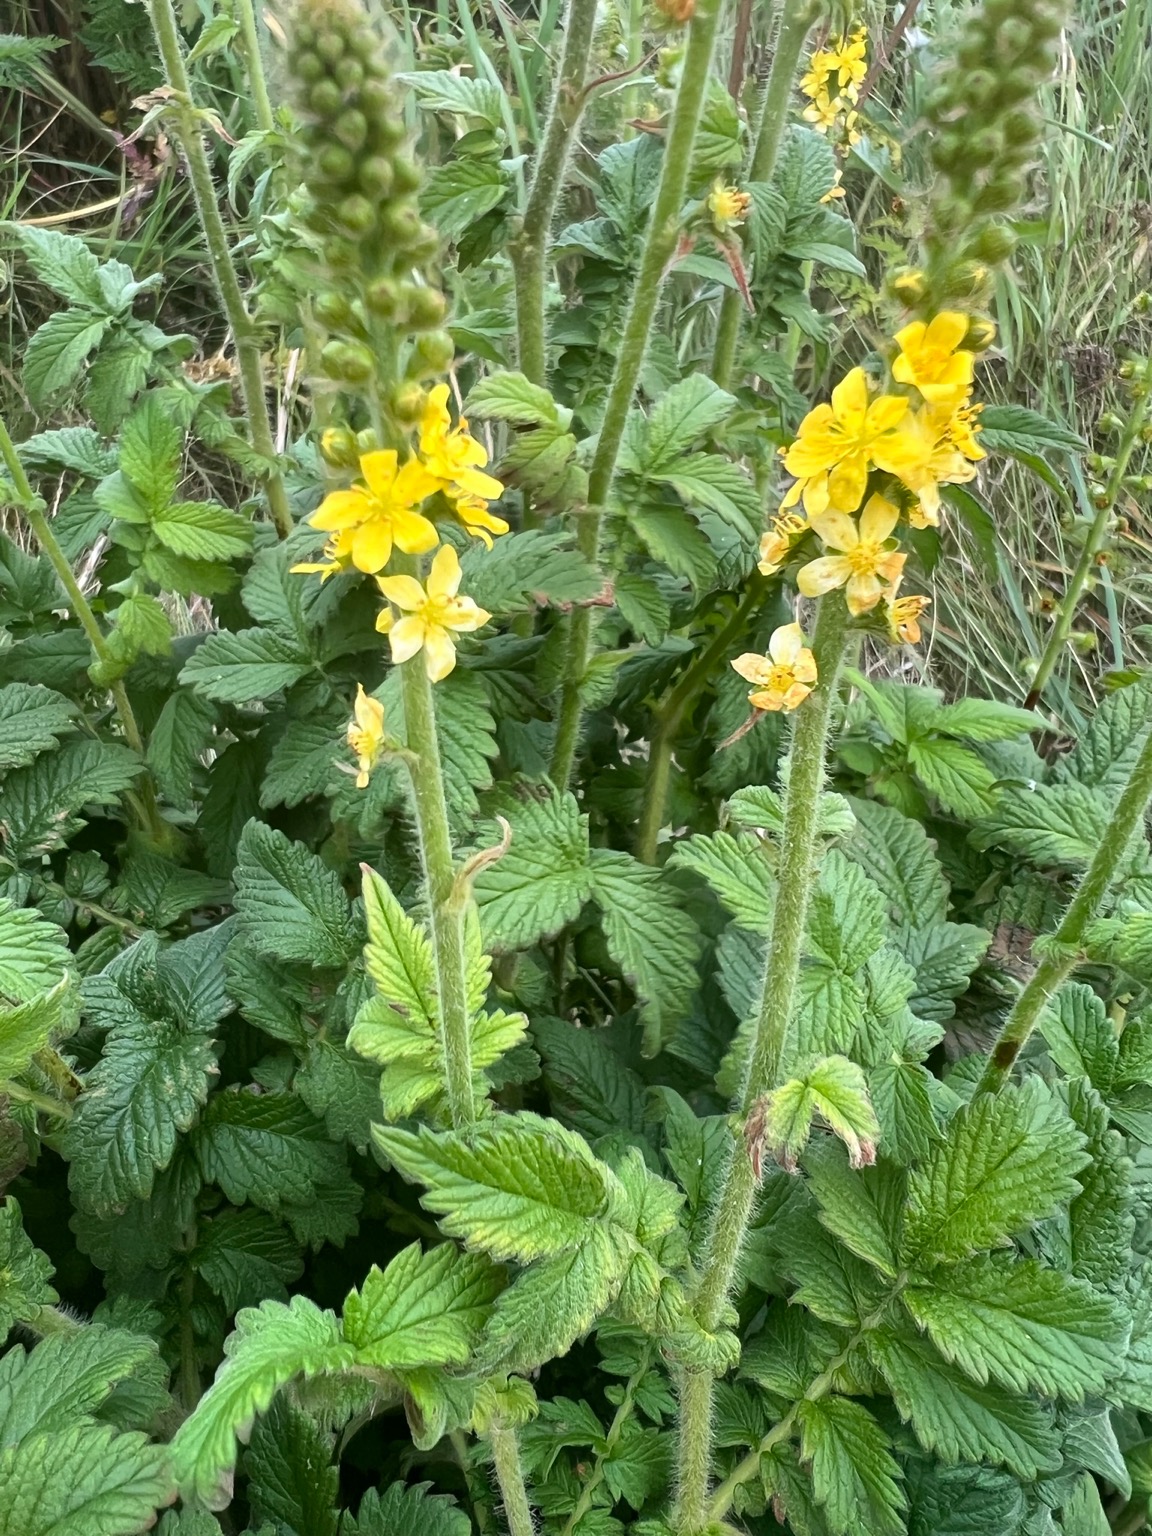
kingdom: Plantae
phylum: Tracheophyta
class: Magnoliopsida
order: Rosales
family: Rosaceae
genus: Agrimonia
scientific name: Agrimonia eupatoria
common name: Almindelig agermåne
